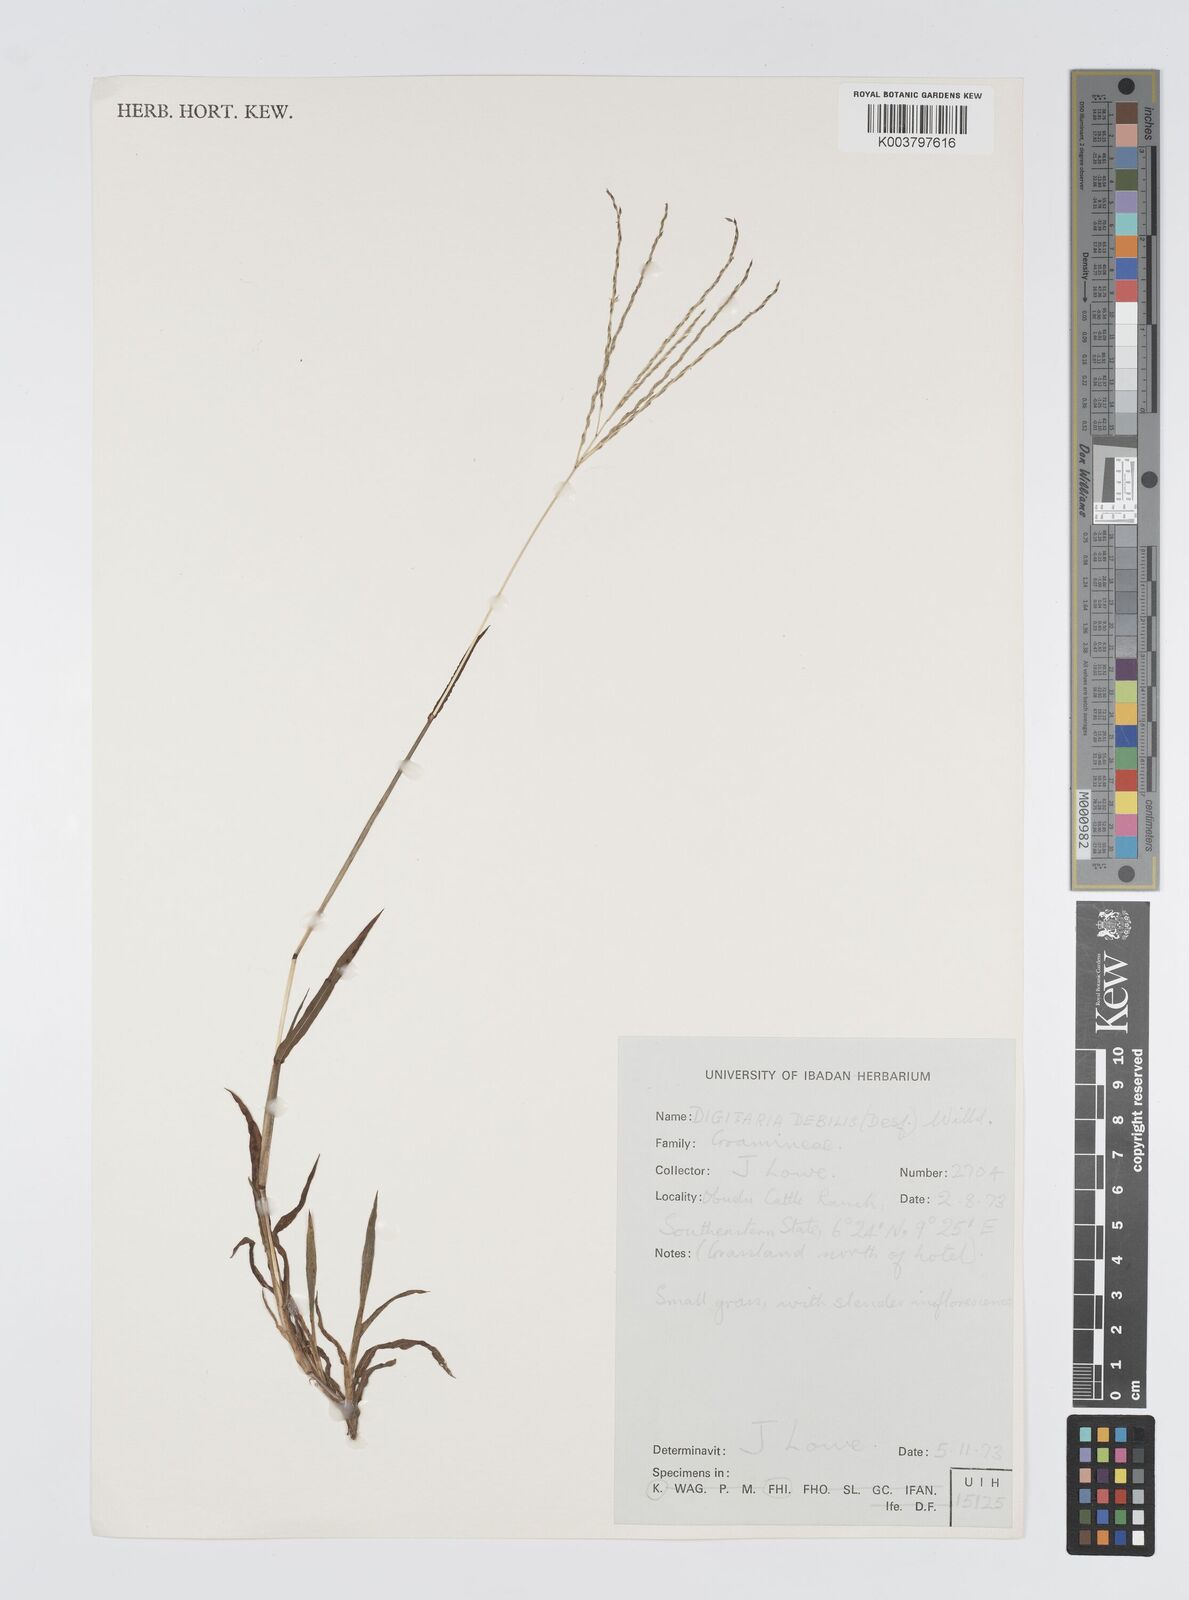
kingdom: Plantae
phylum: Tracheophyta
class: Liliopsida
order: Poales
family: Poaceae
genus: Digitaria
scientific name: Digitaria debilis
